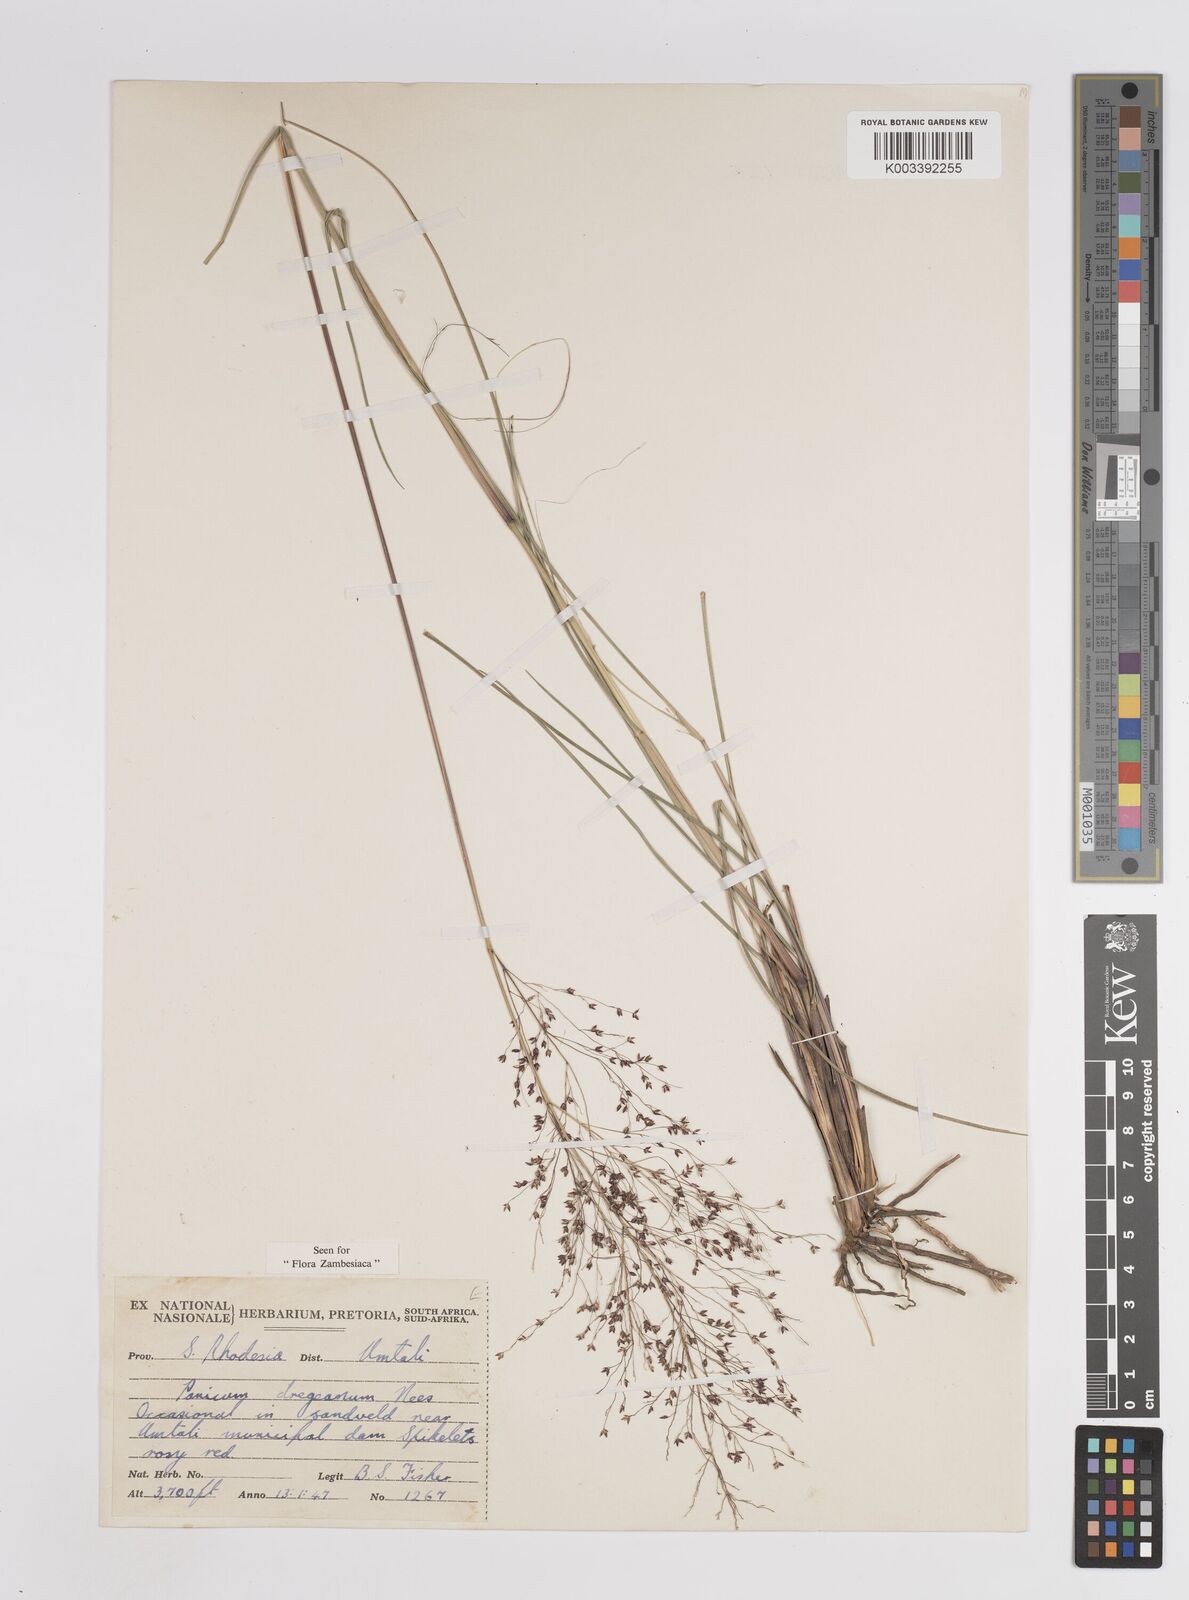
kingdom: Plantae
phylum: Tracheophyta
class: Liliopsida
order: Poales
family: Poaceae
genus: Panicum
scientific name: Panicum dregeanum
